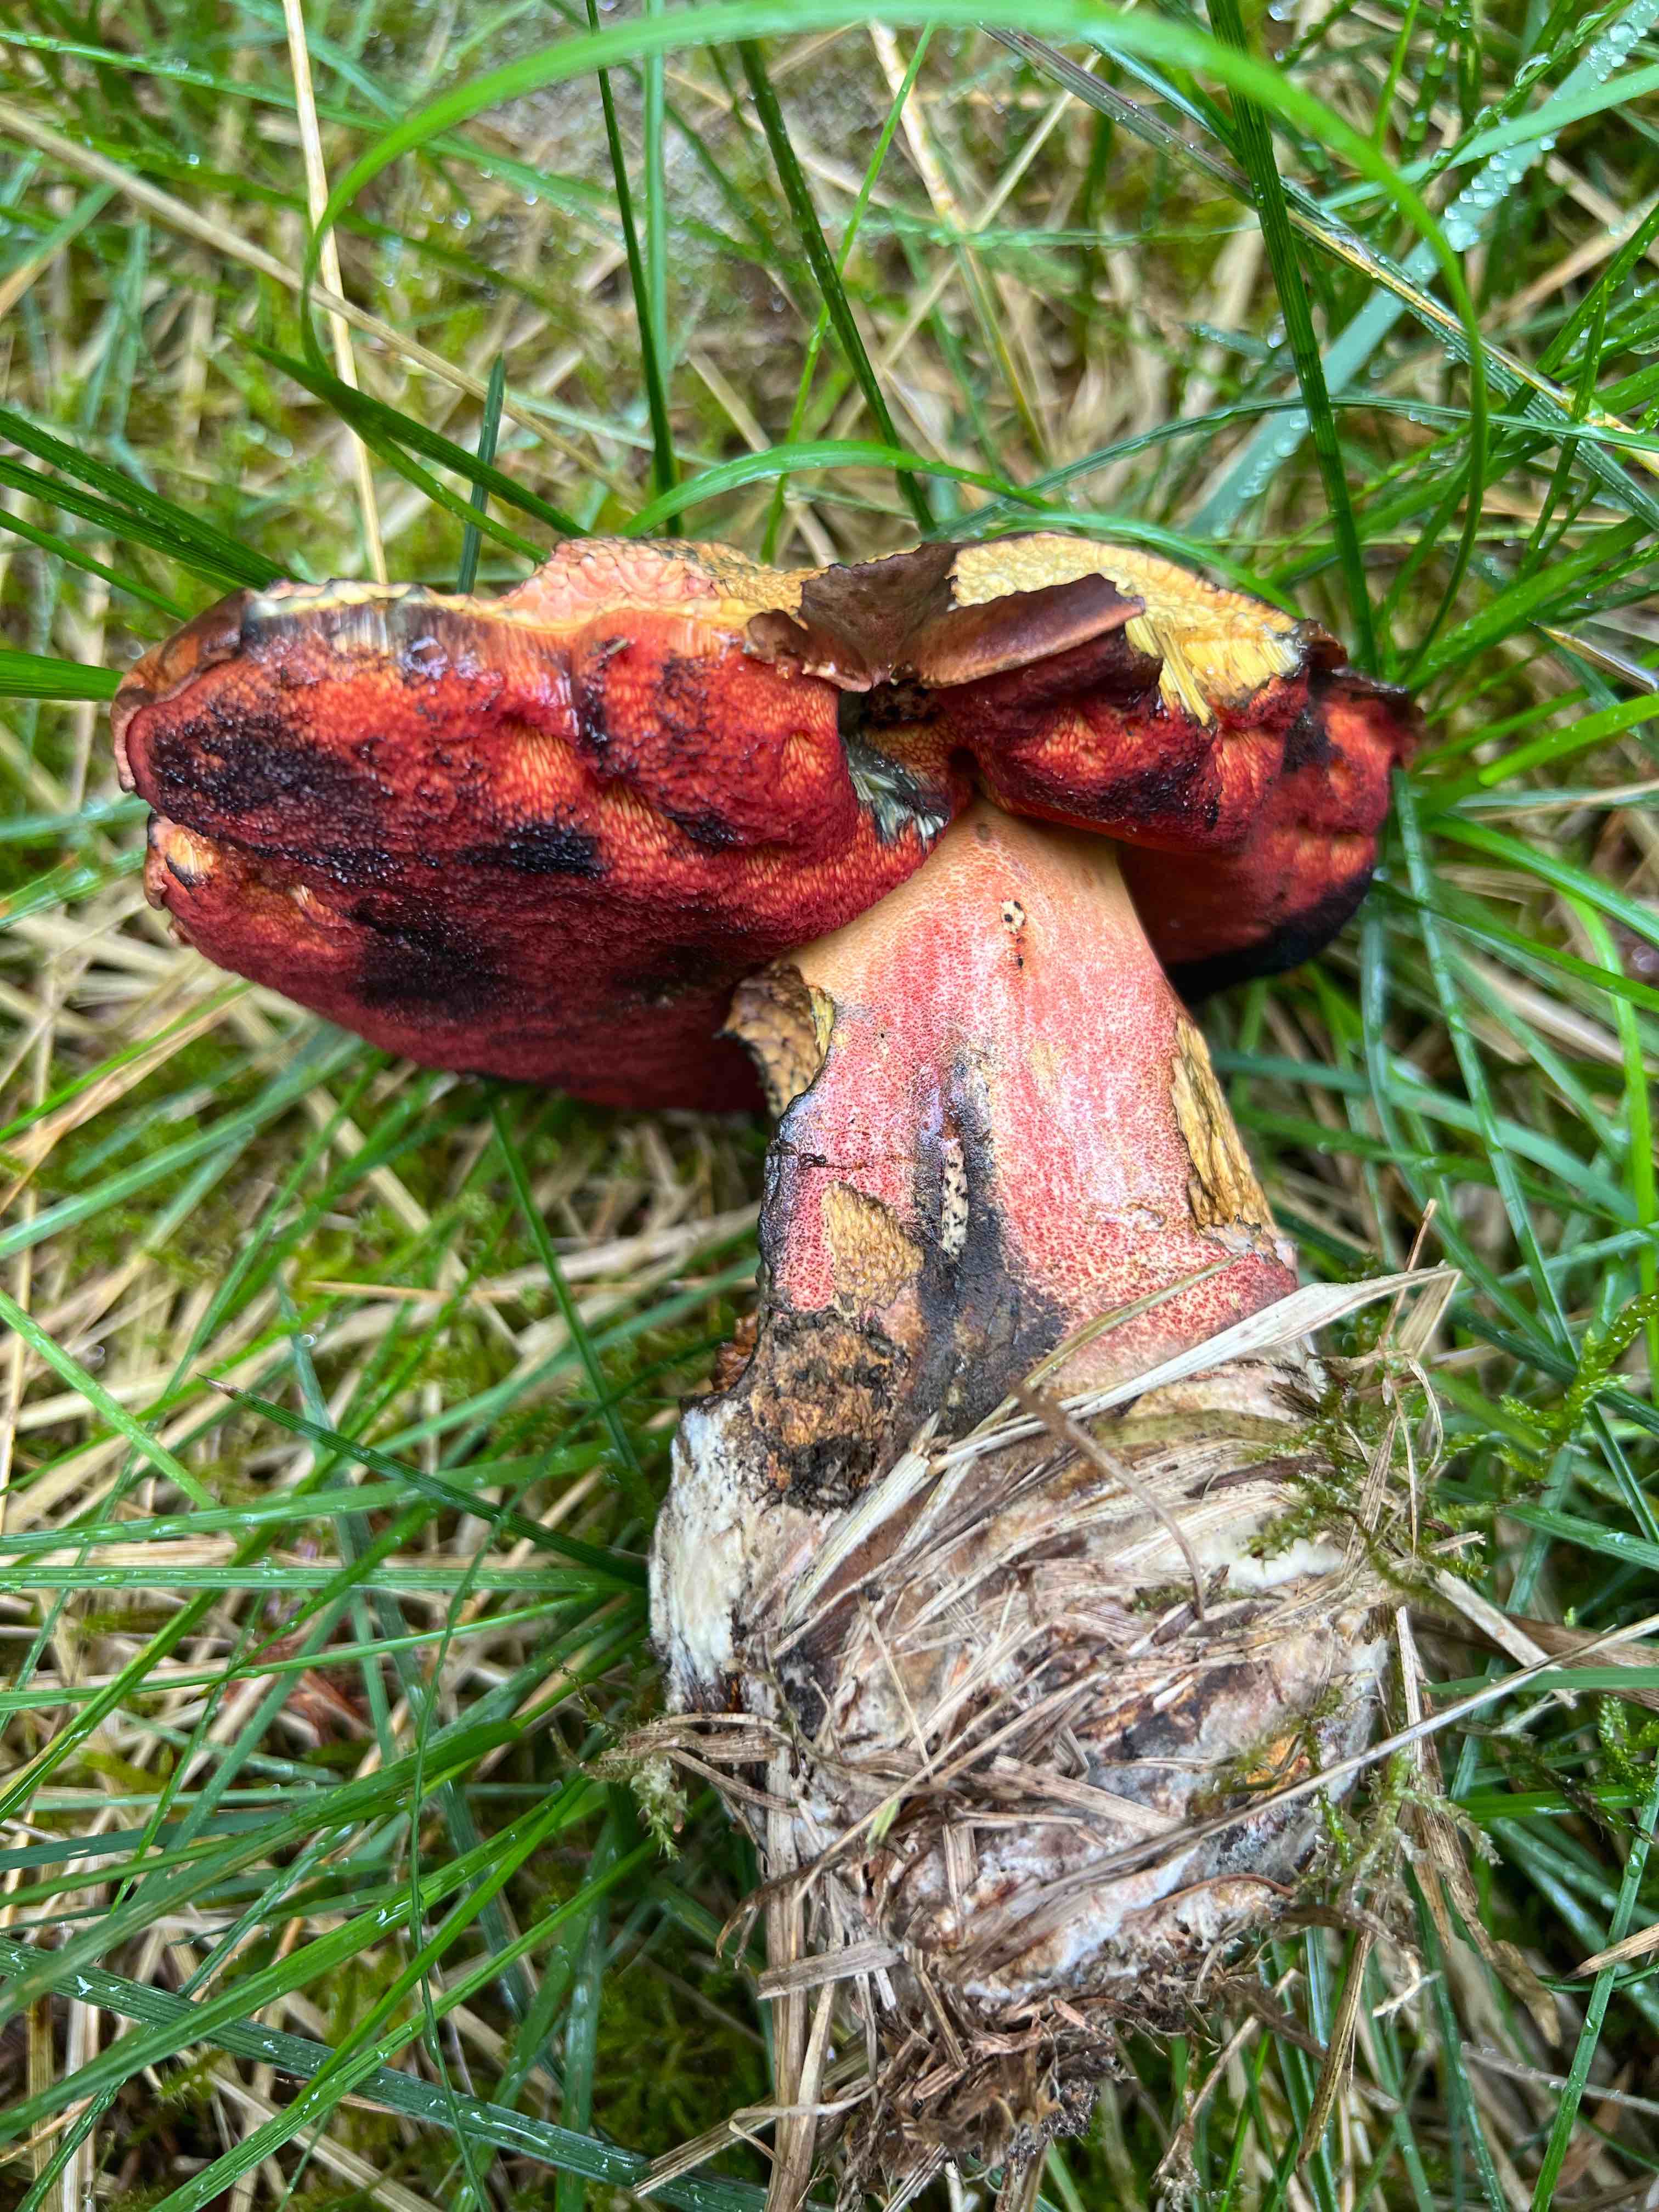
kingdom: Fungi
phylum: Basidiomycota
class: Agaricomycetes
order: Boletales
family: Boletaceae
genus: Neoboletus
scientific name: Neoboletus erythropus
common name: punktstokket indigorørhat
